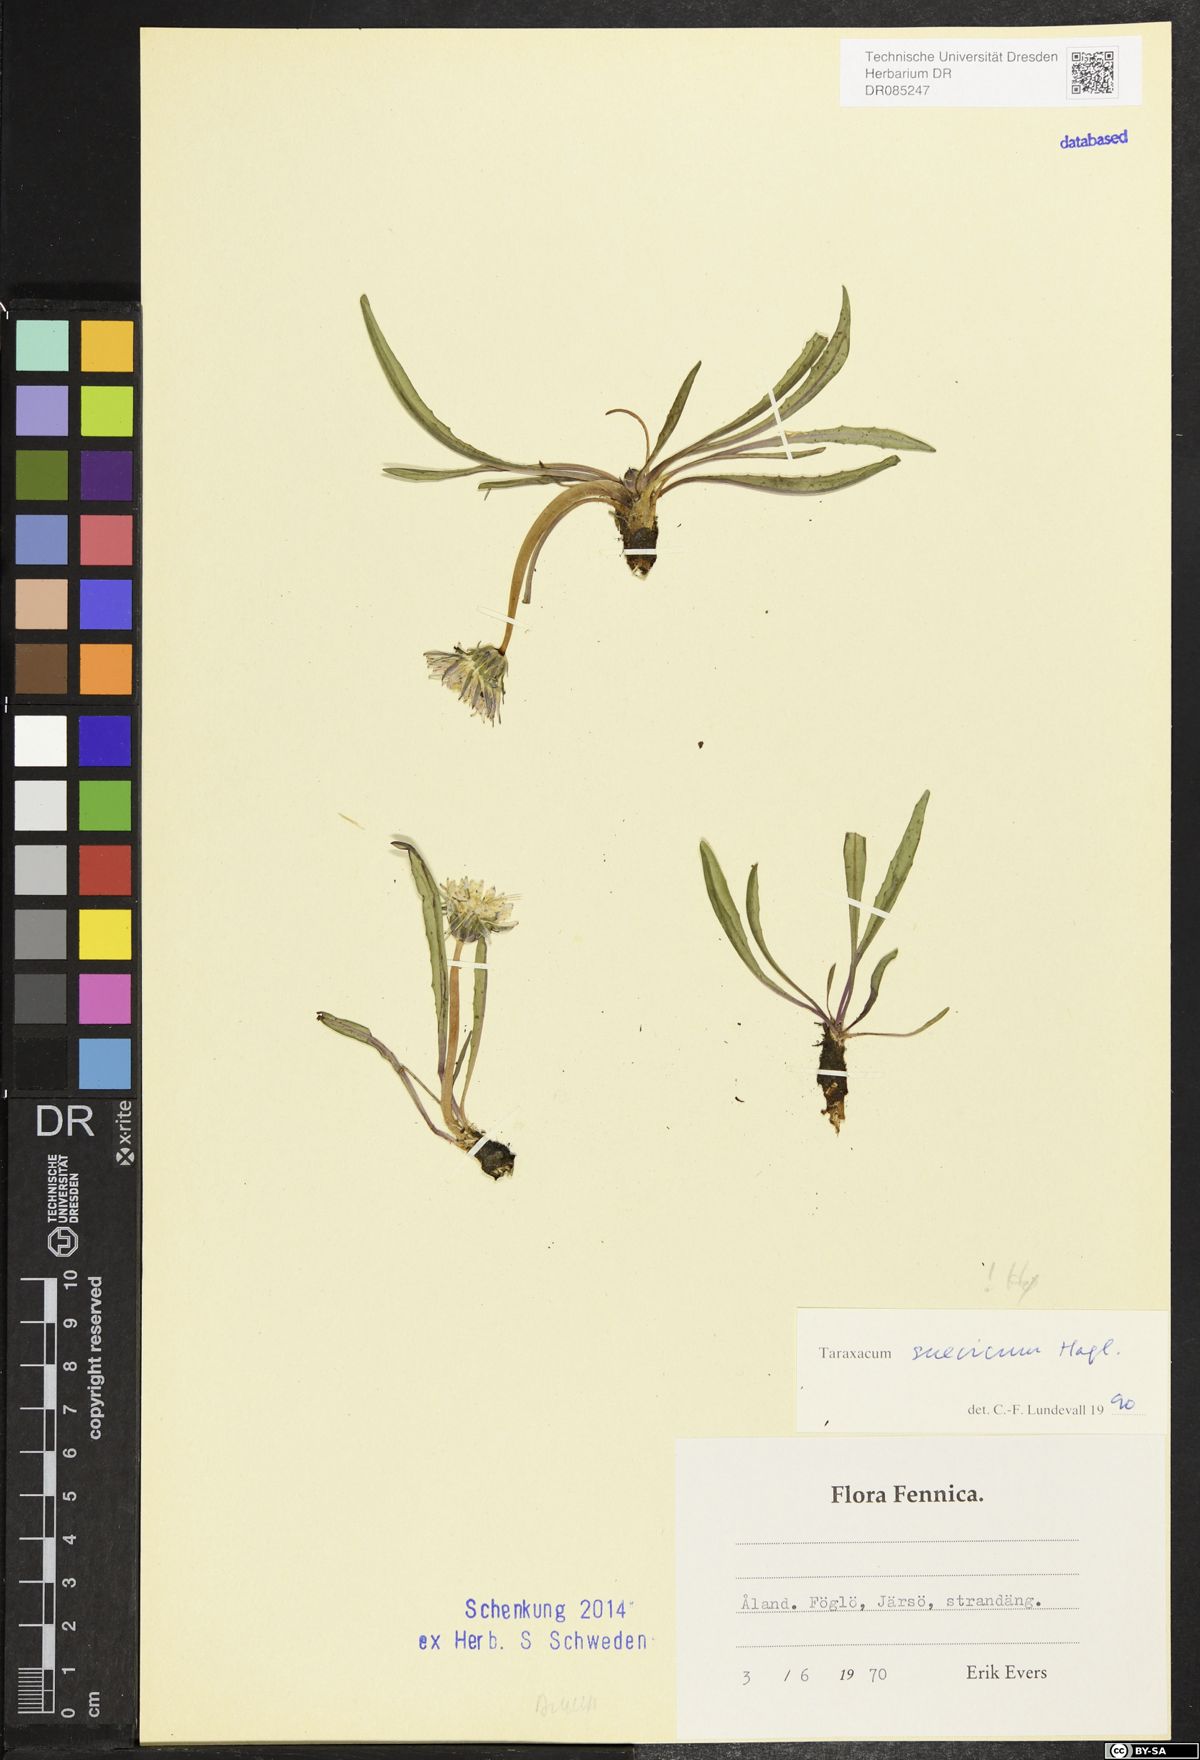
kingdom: Plantae
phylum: Tracheophyta
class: Magnoliopsida
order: Asterales
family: Asteraceae
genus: Taraxacum
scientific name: Taraxacum suecicum
